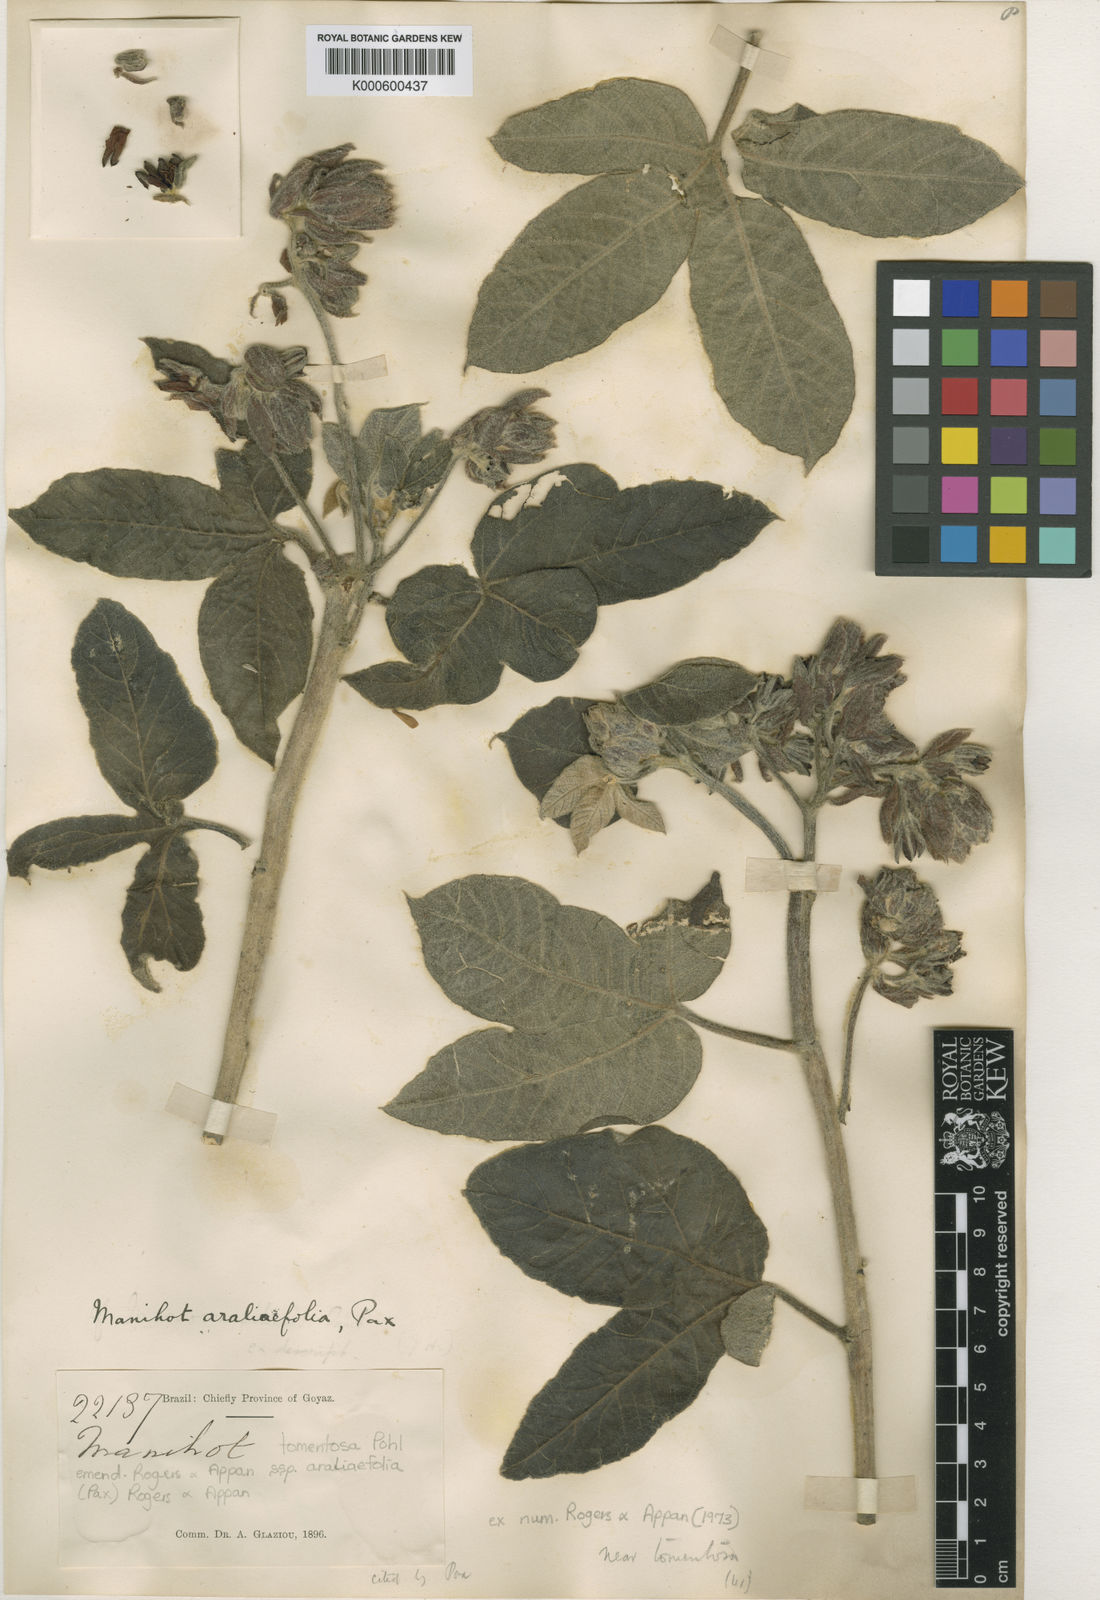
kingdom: Plantae
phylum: Tracheophyta
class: Magnoliopsida
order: Malpighiales
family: Euphorbiaceae
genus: Manihot
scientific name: Manihot tomentosa
